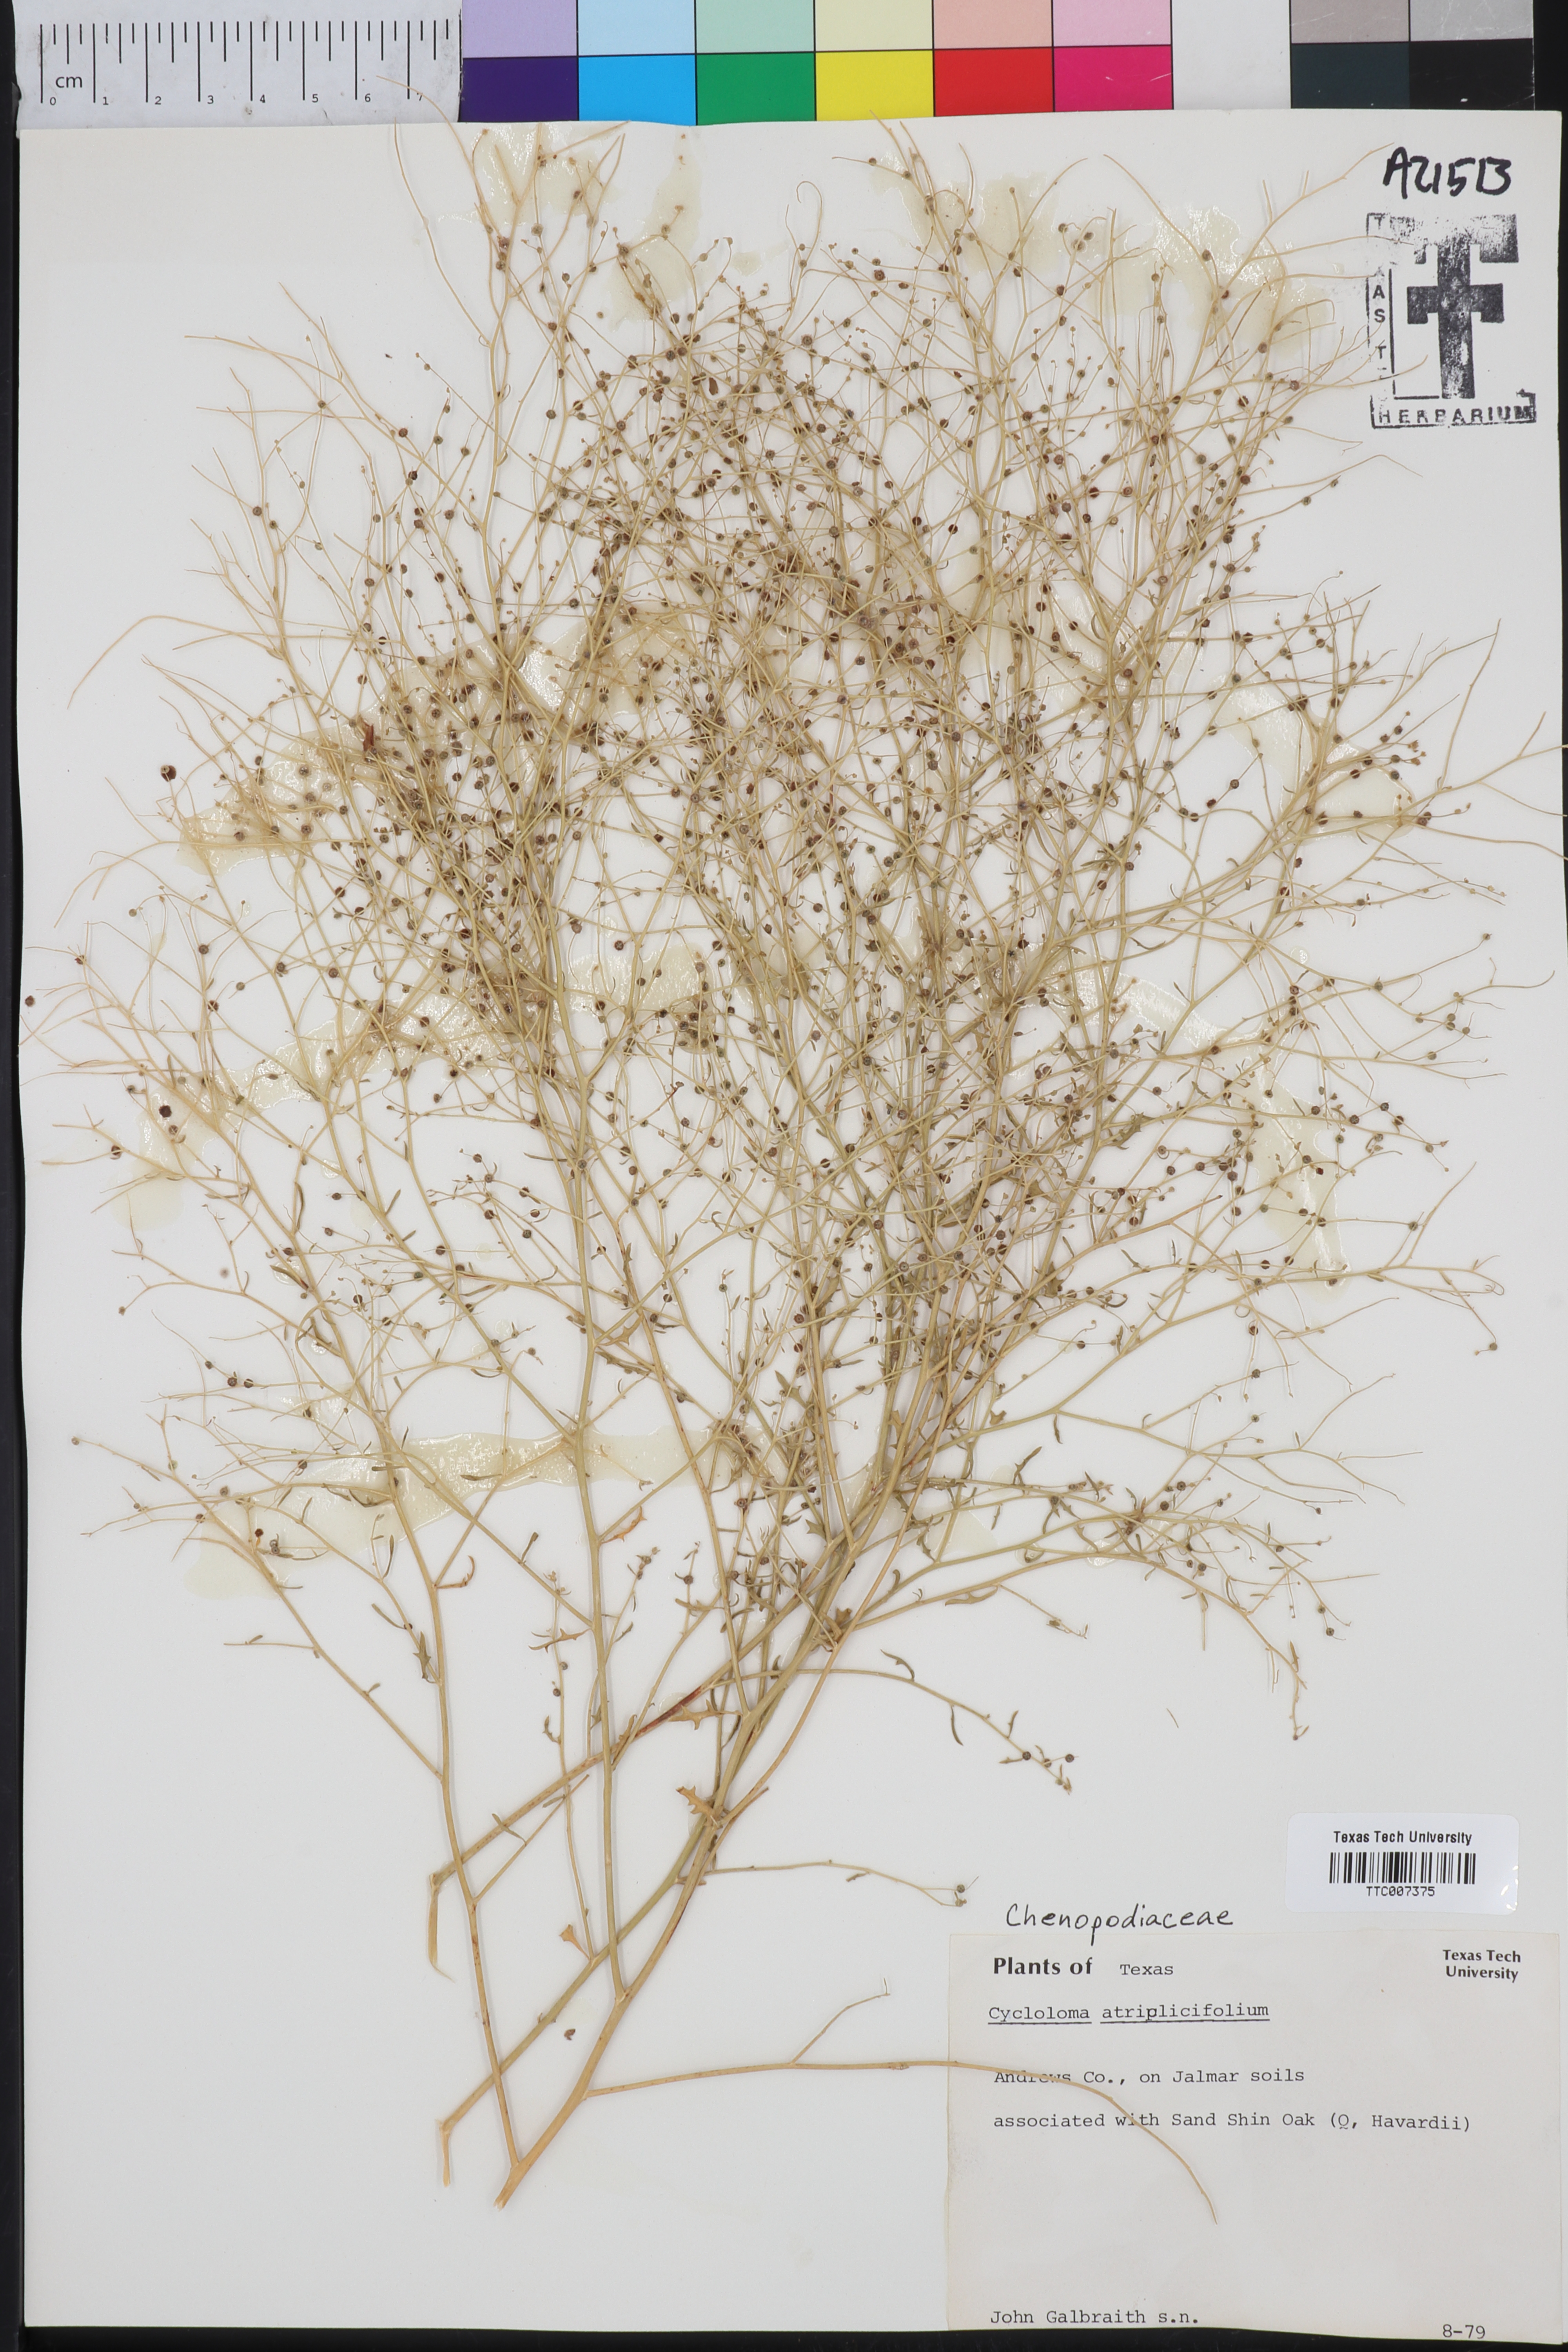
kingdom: Plantae
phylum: Tracheophyta
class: Magnoliopsida
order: Caryophyllales
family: Amaranthaceae
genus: Dysphania
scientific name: Dysphania atriplicifolia
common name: Plains tumbleweed
